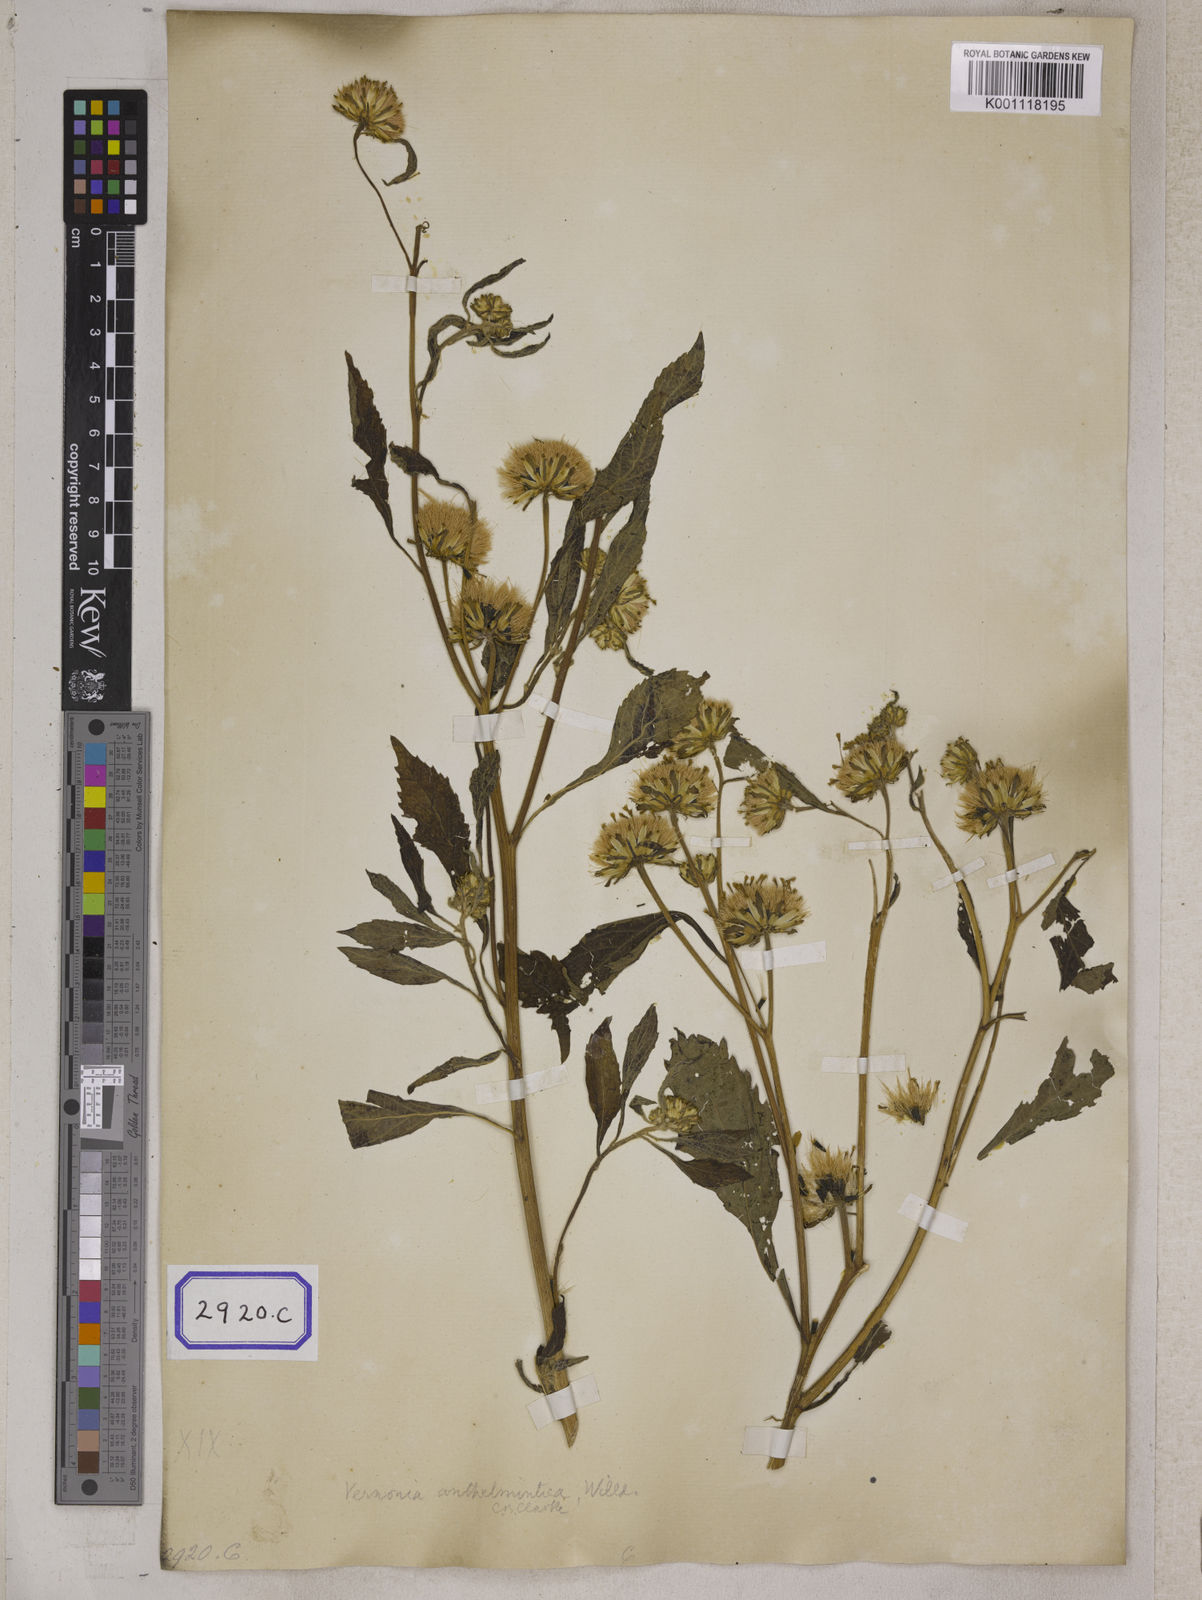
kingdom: Plantae
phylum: Tracheophyta
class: Magnoliopsida
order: Asterales
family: Asteraceae
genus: Baccharoides
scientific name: Baccharoides anthelmintica
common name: Kinka-oil
